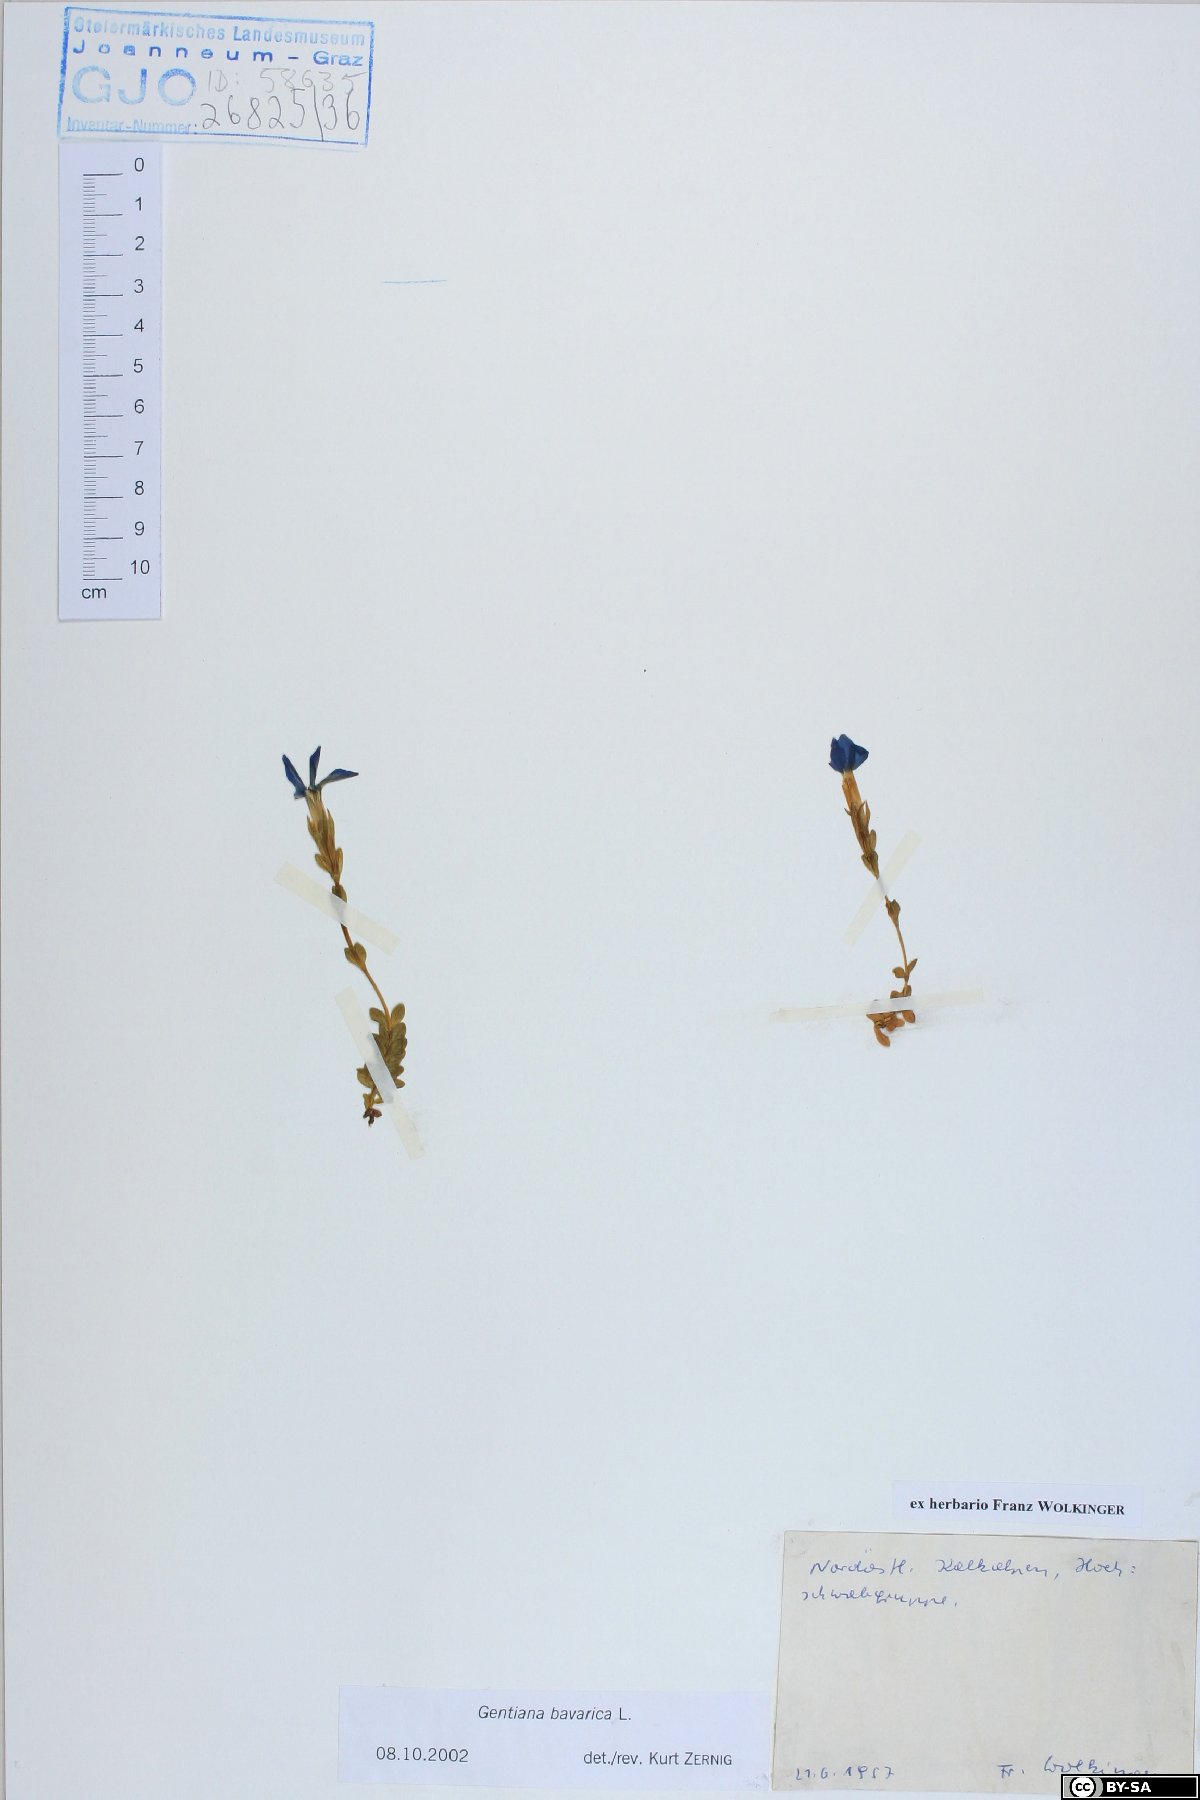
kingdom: Plantae
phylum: Tracheophyta
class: Magnoliopsida
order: Gentianales
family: Gentianaceae
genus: Gentiana
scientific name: Gentiana bavarica
